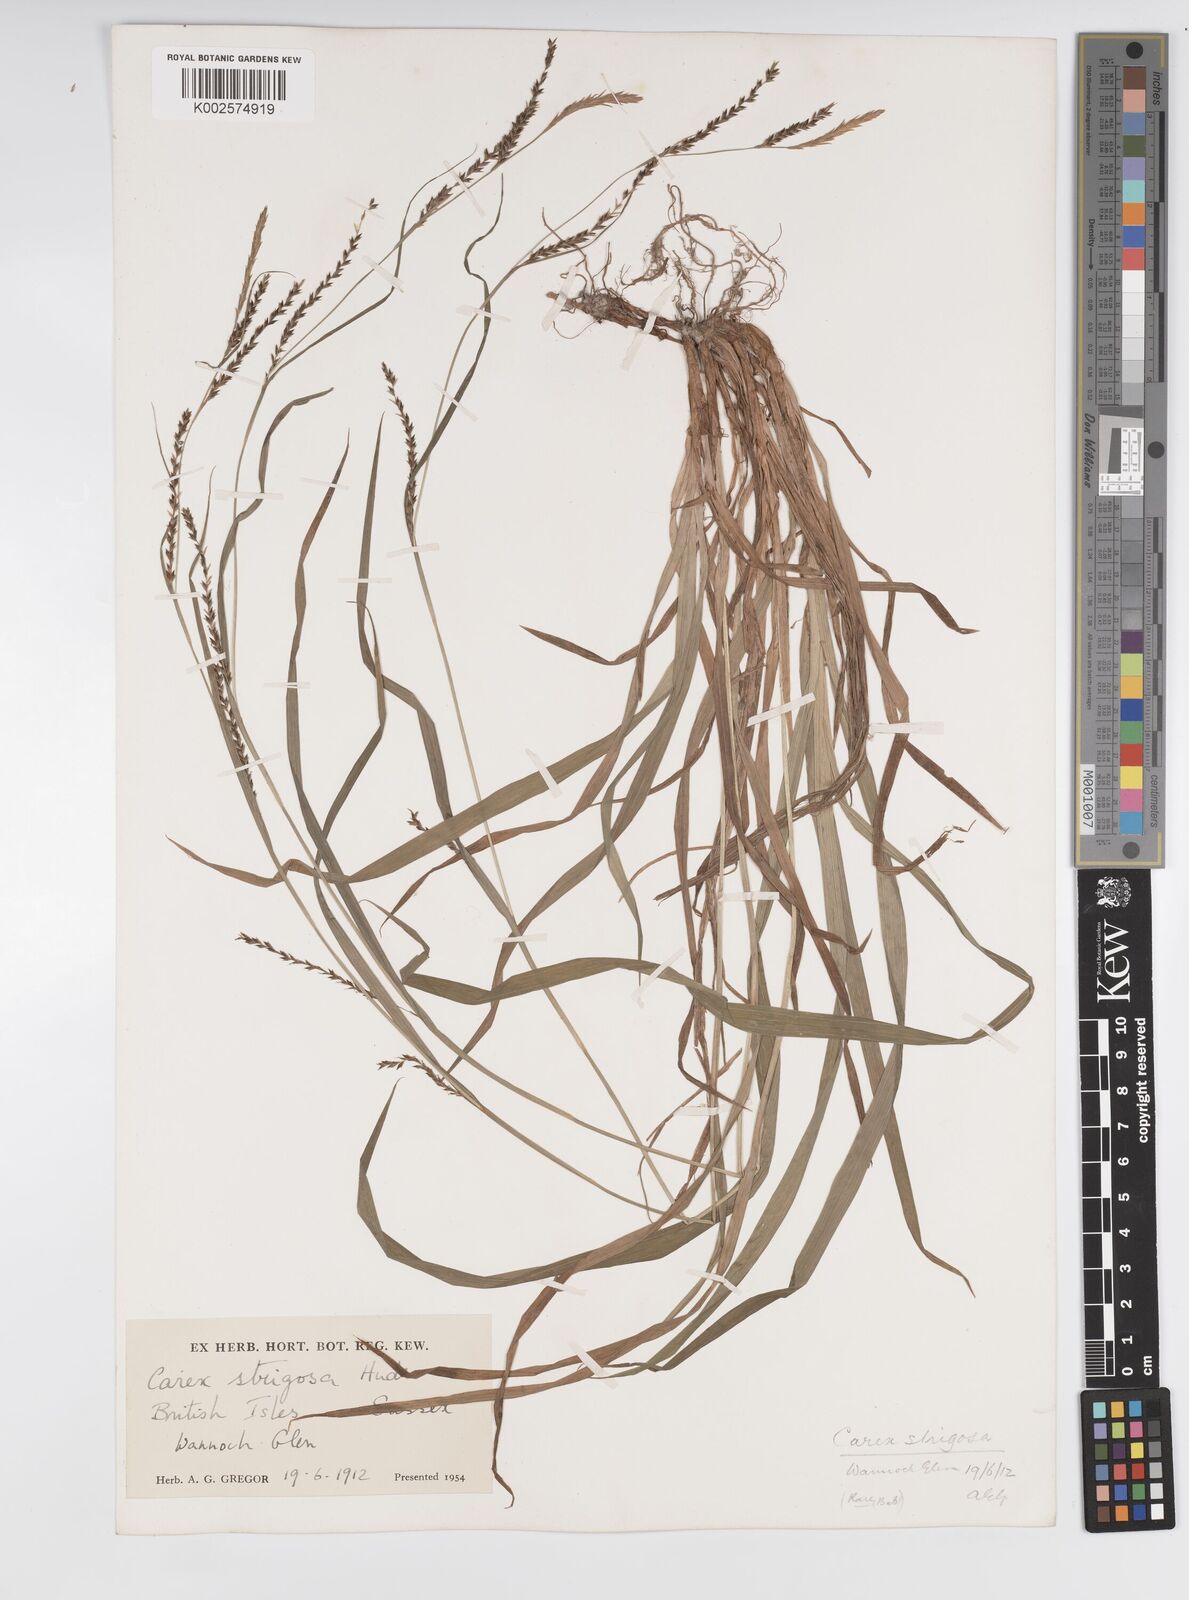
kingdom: Plantae
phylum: Tracheophyta
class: Liliopsida
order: Poales
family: Cyperaceae
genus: Carex
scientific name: Carex strigosa
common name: Thin-spiked wood-sedge
